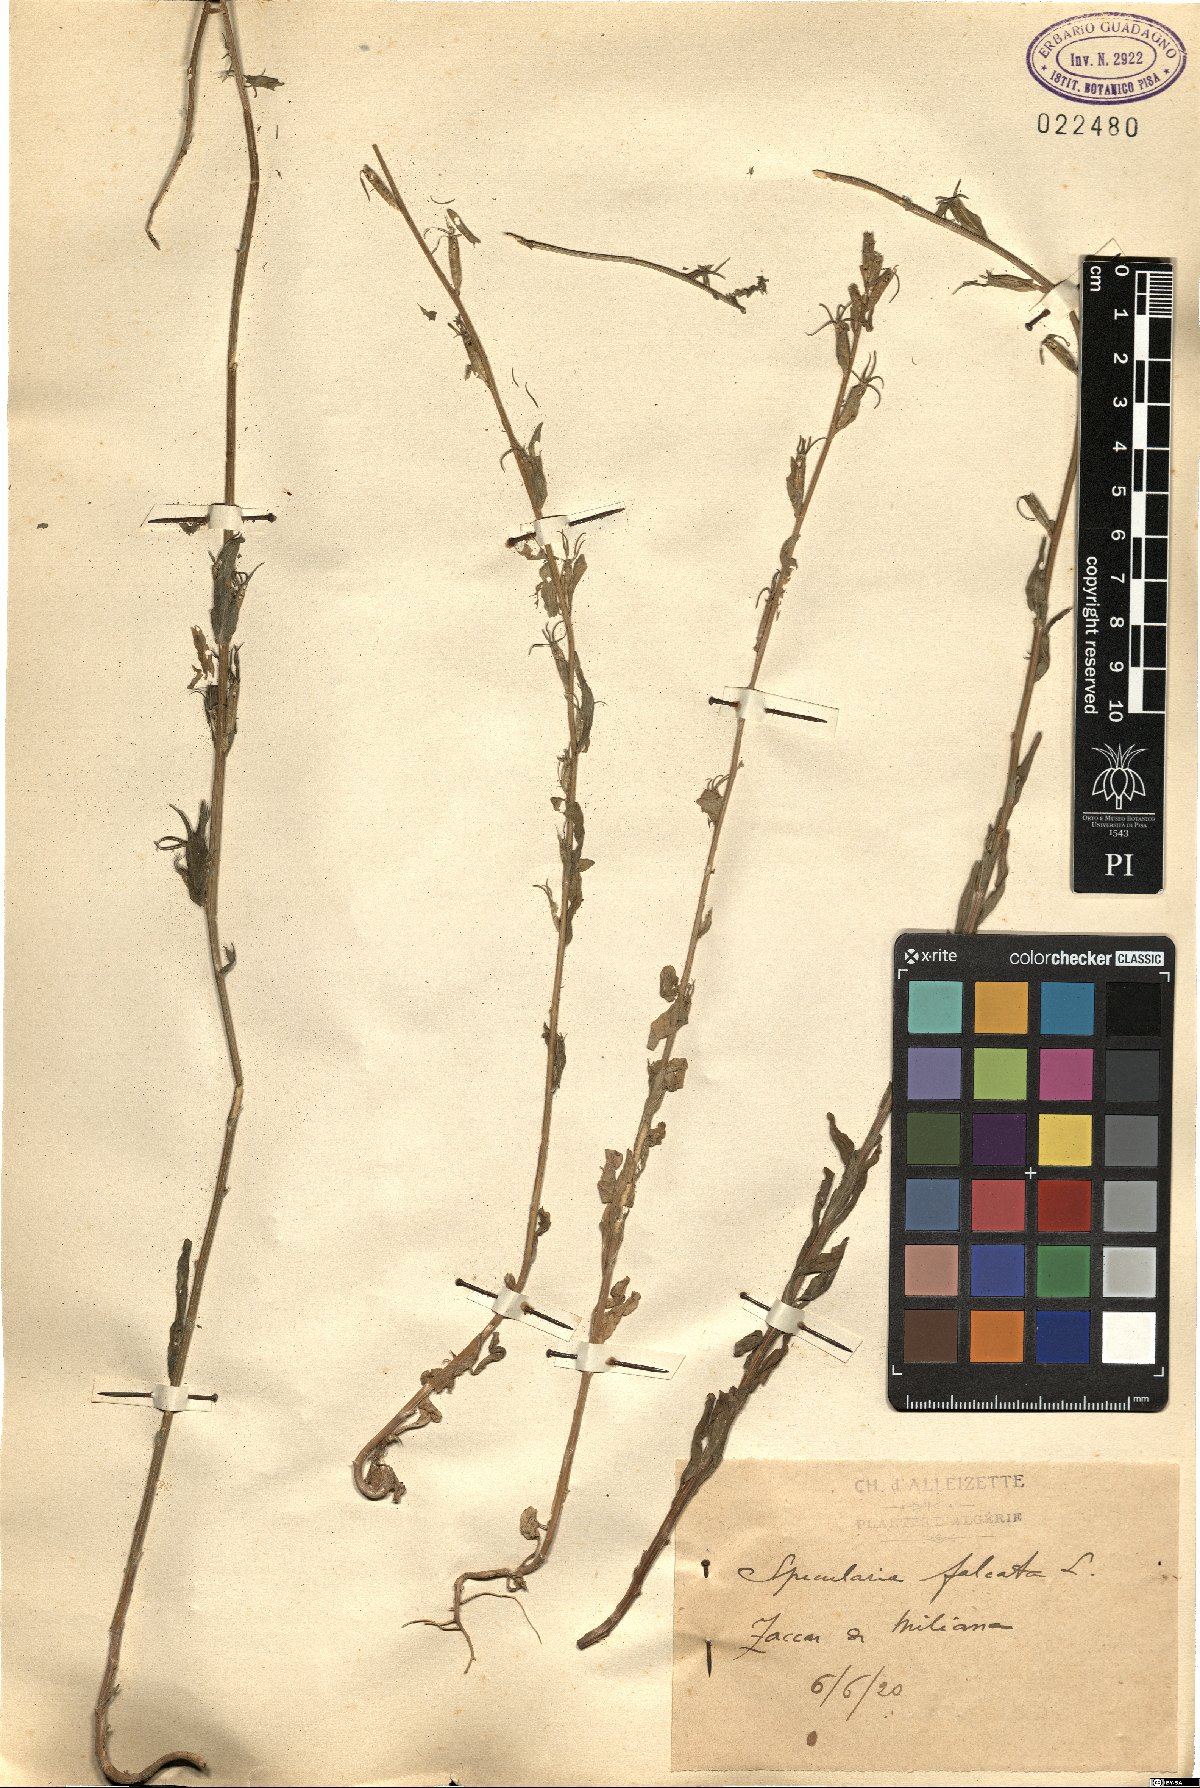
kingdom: Plantae
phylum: Tracheophyta
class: Magnoliopsida
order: Asterales
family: Campanulaceae
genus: Legousia
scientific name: Legousia falcata
